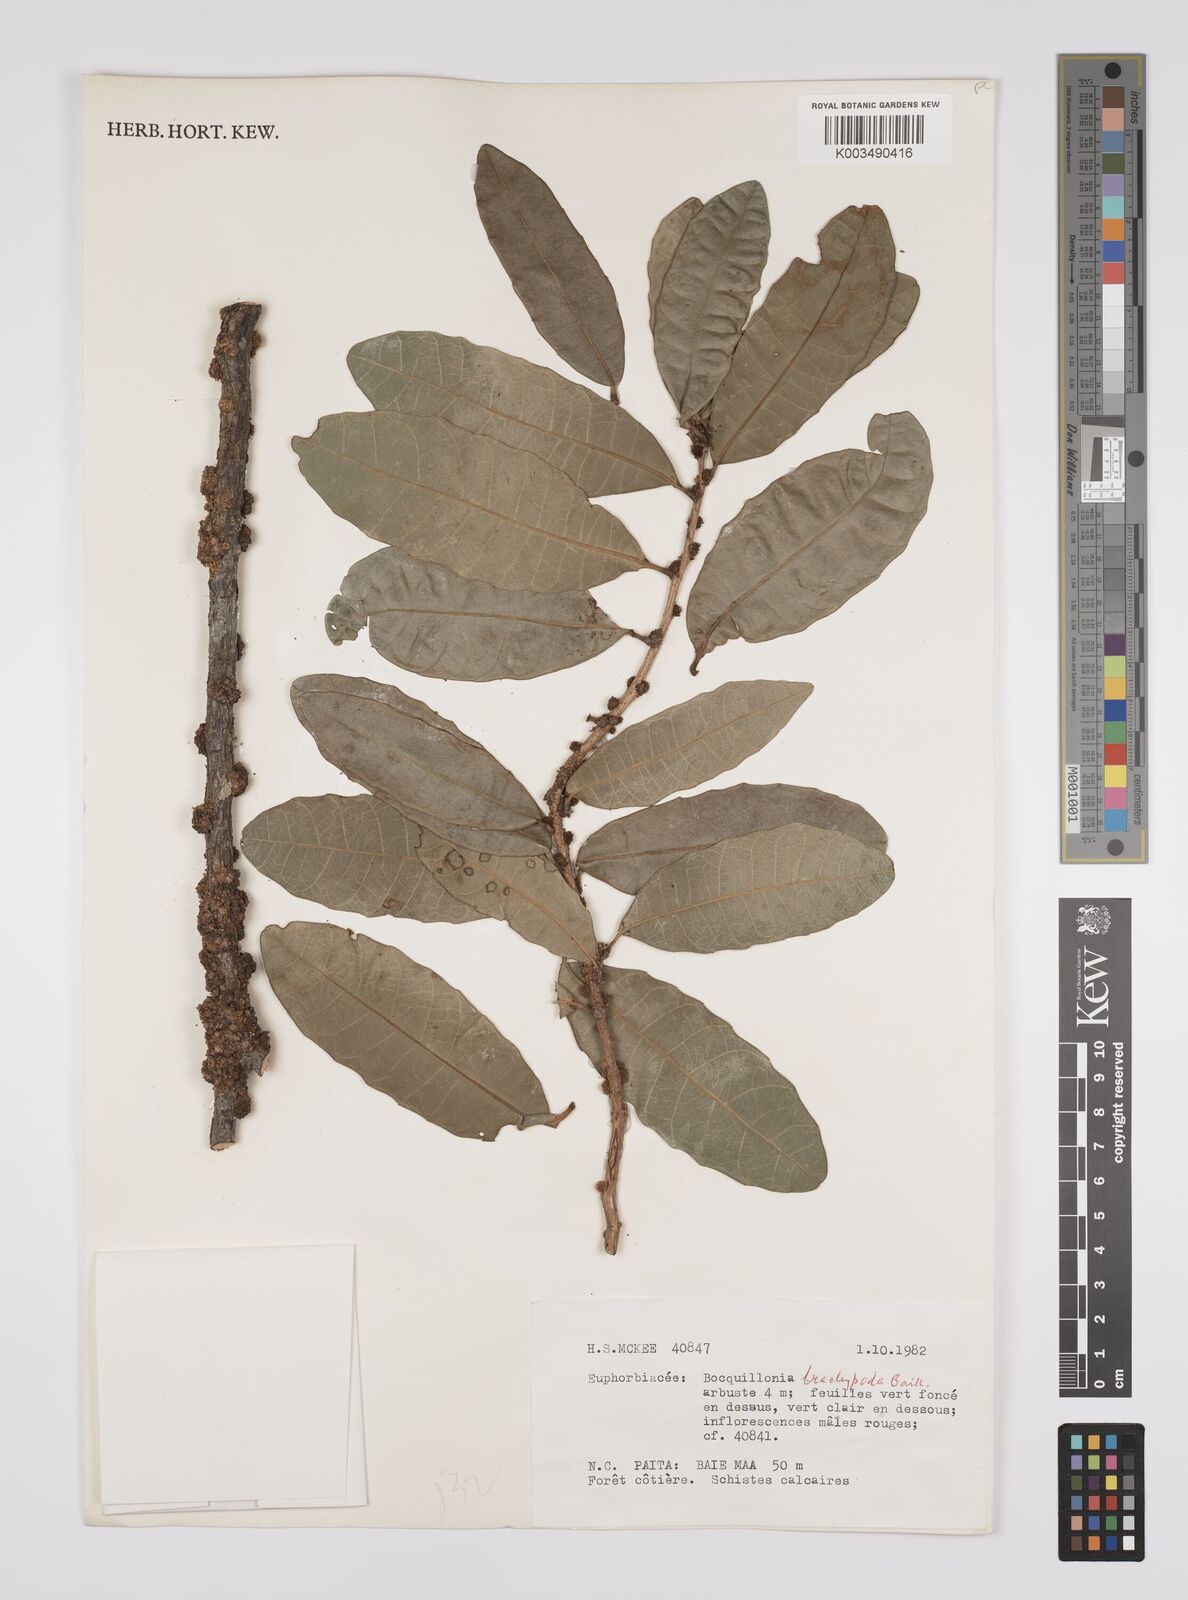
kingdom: Plantae
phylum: Tracheophyta
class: Magnoliopsida
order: Malpighiales
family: Euphorbiaceae
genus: Bocquillonia
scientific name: Bocquillonia brachypoda
